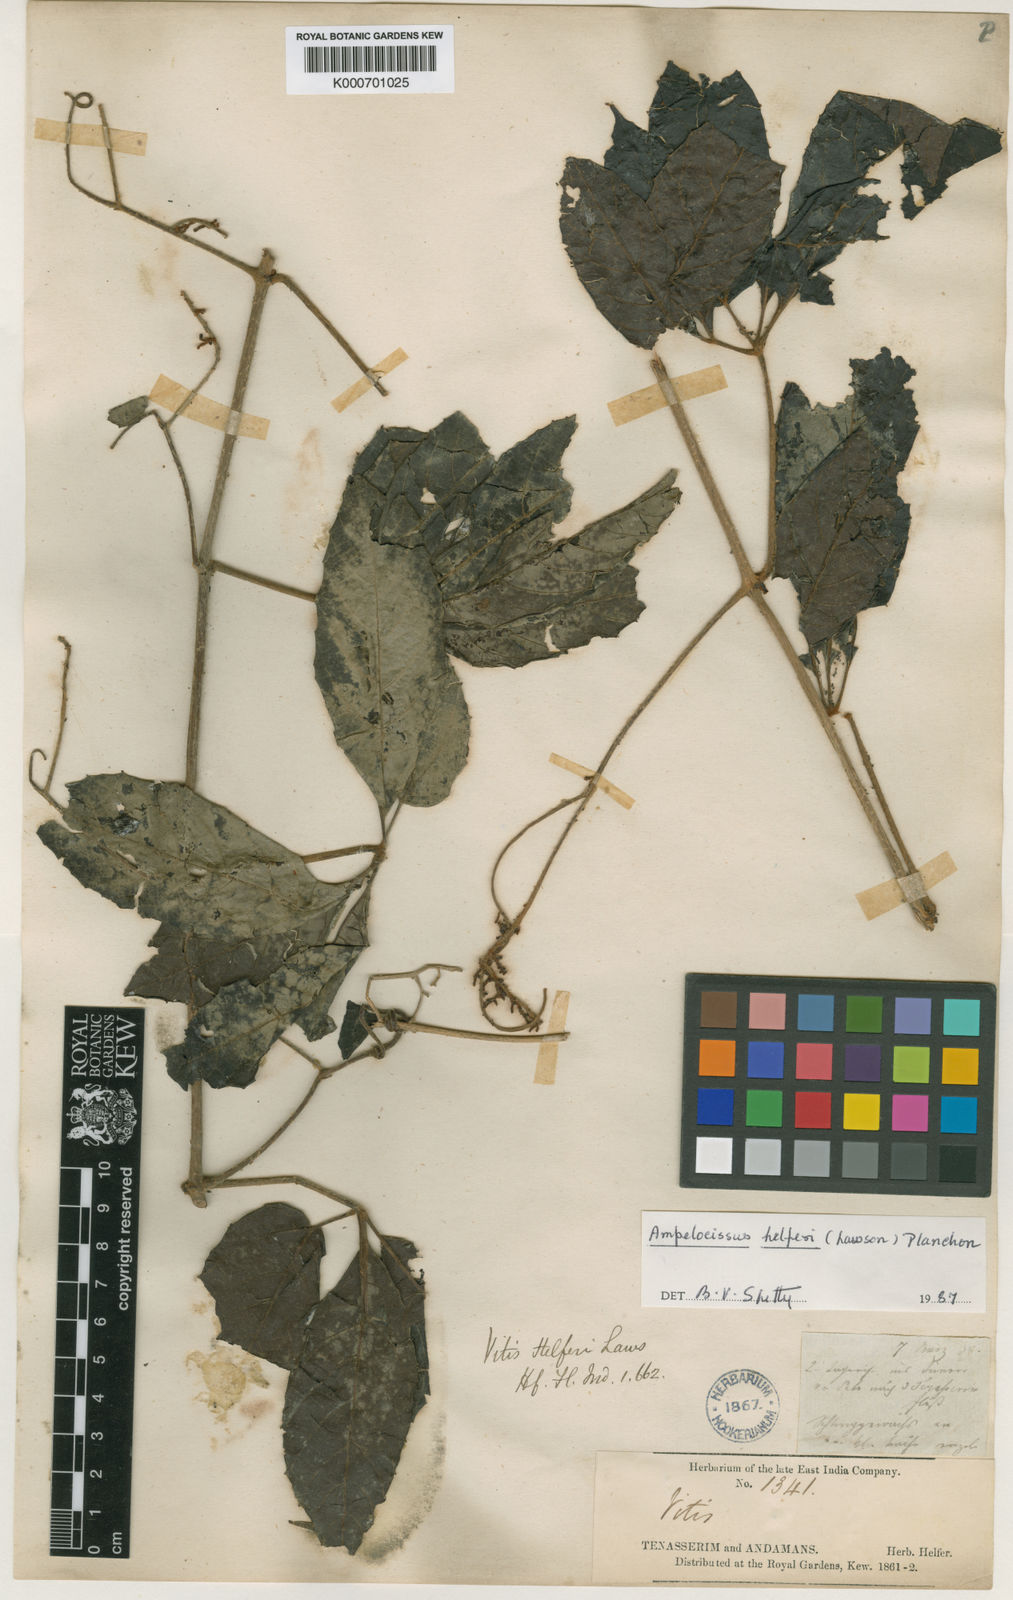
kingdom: Plantae
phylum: Tracheophyta
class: Magnoliopsida
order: Vitales
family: Vitaceae
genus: Ampelocissus
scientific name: Ampelocissus helferi
